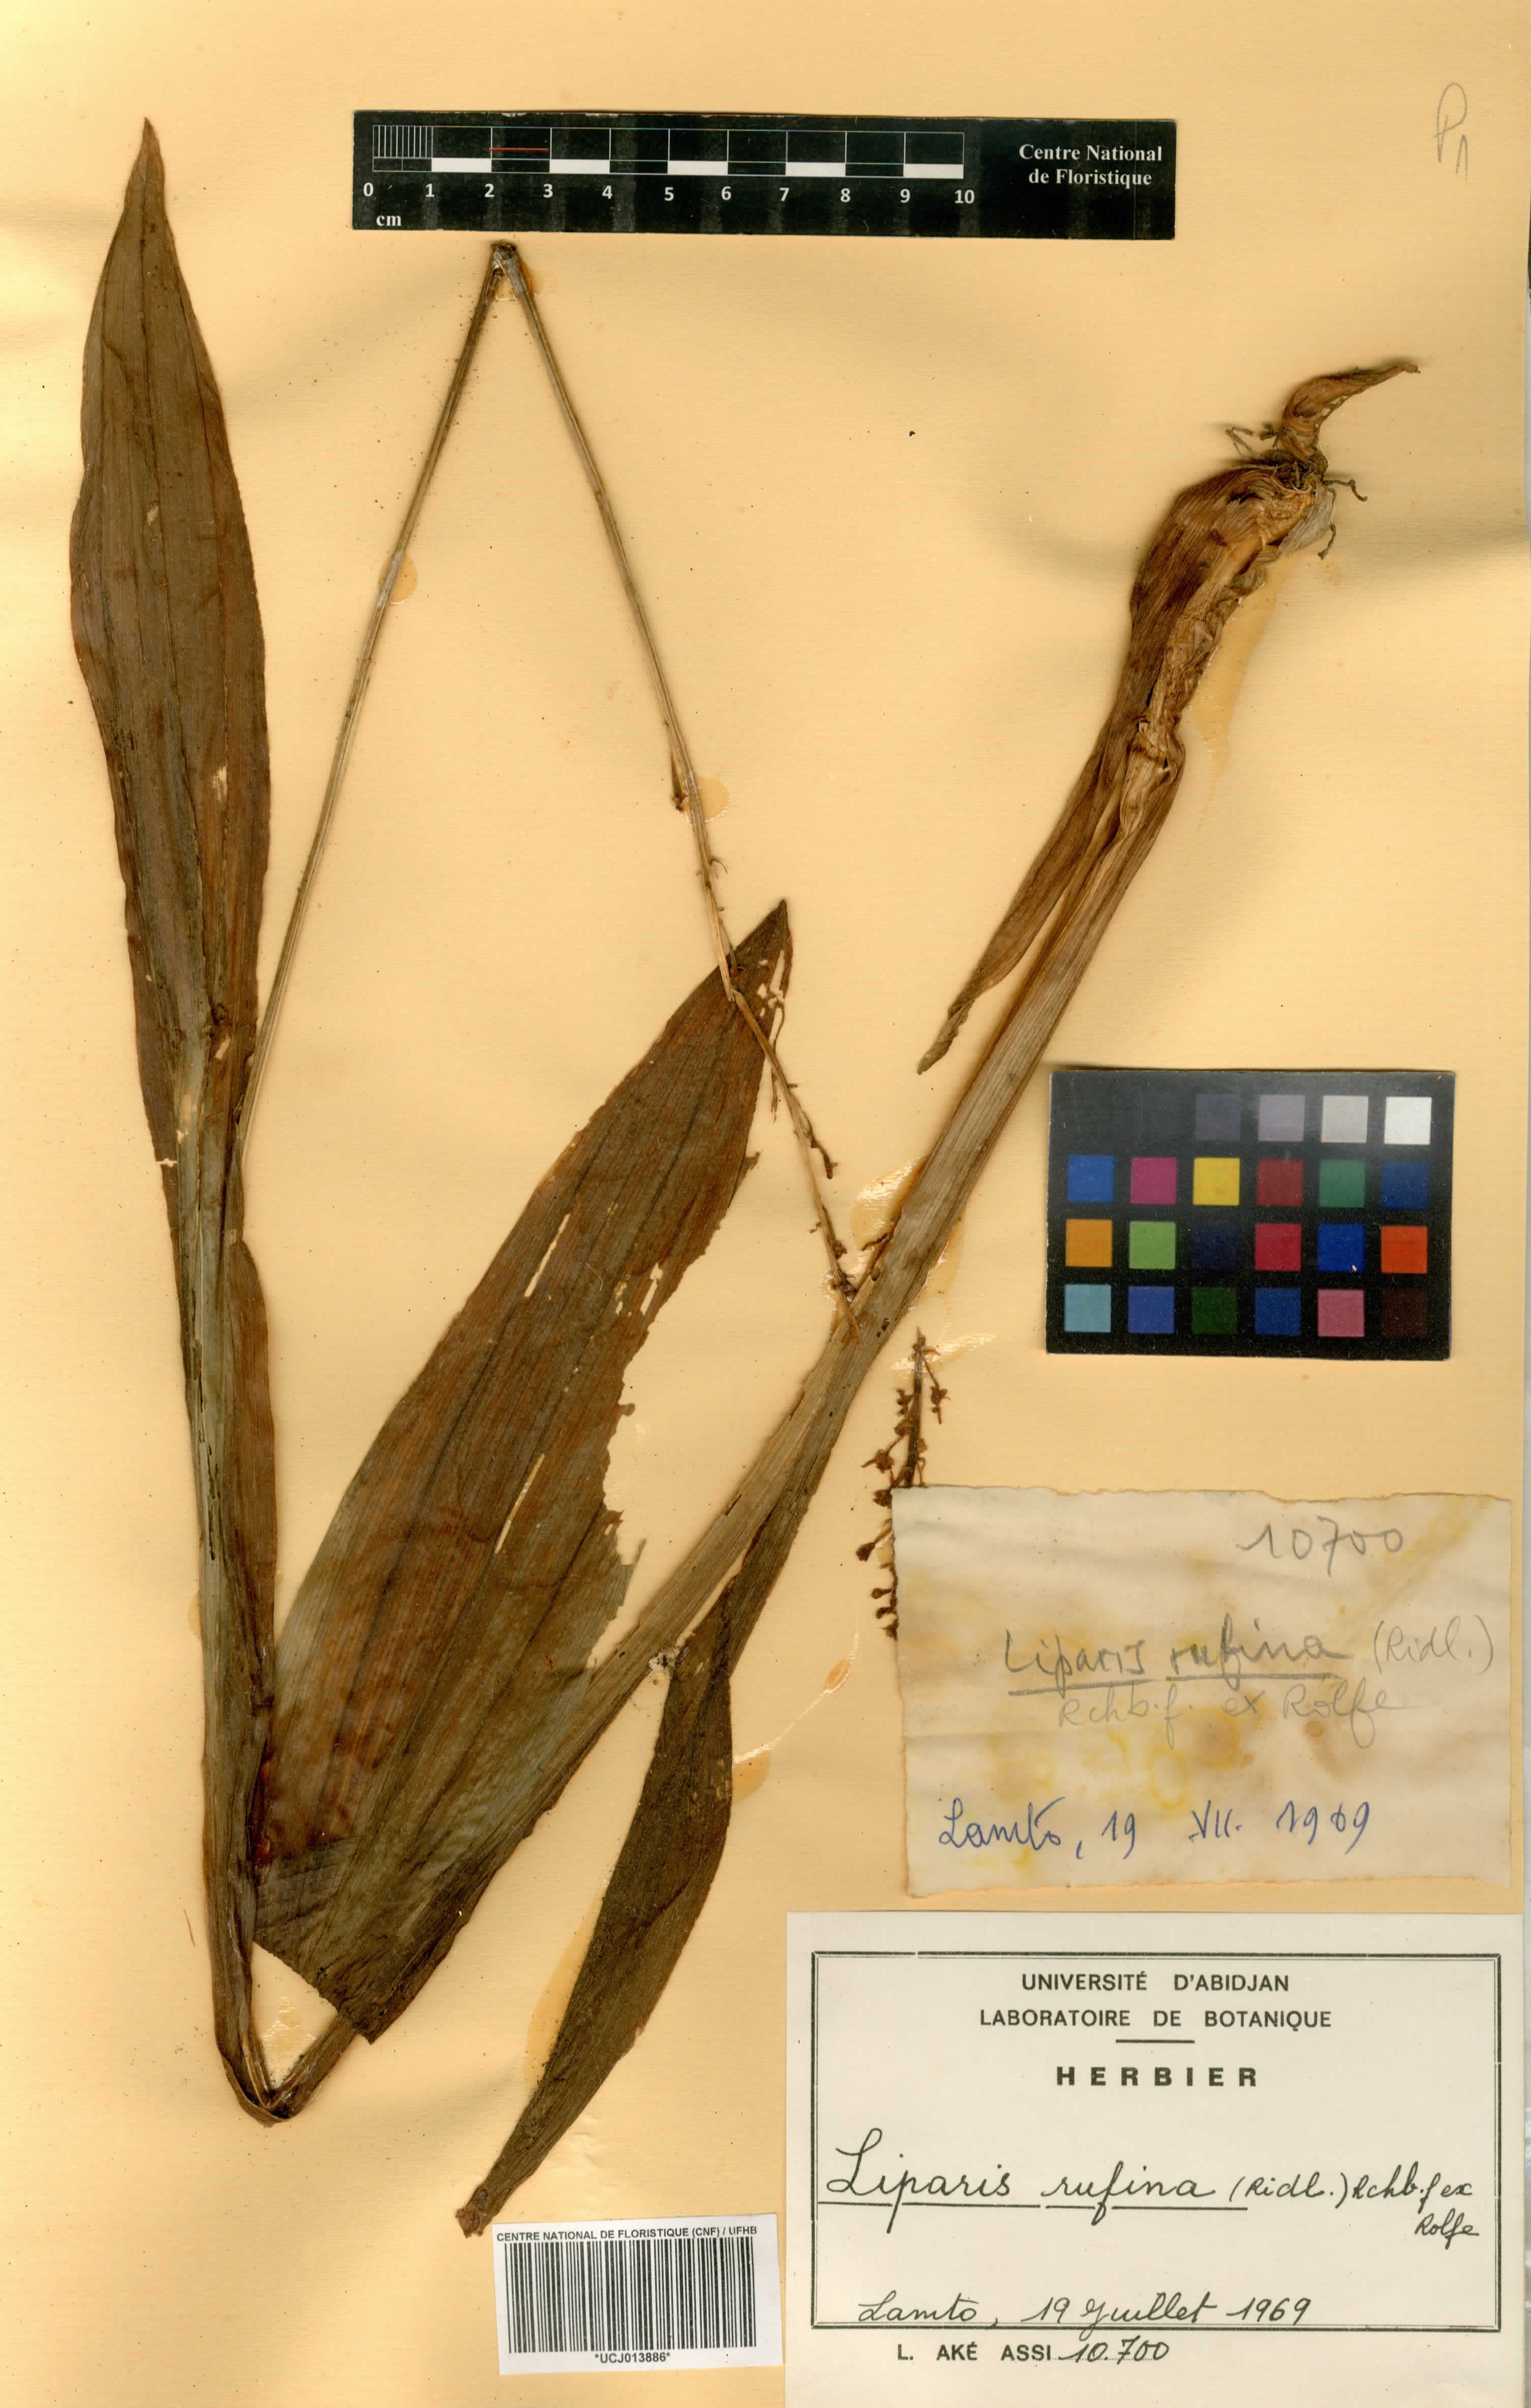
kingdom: Plantae
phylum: Tracheophyta
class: Liliopsida
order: Asparagales
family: Orchidaceae
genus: Liparis
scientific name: Liparis rufina
